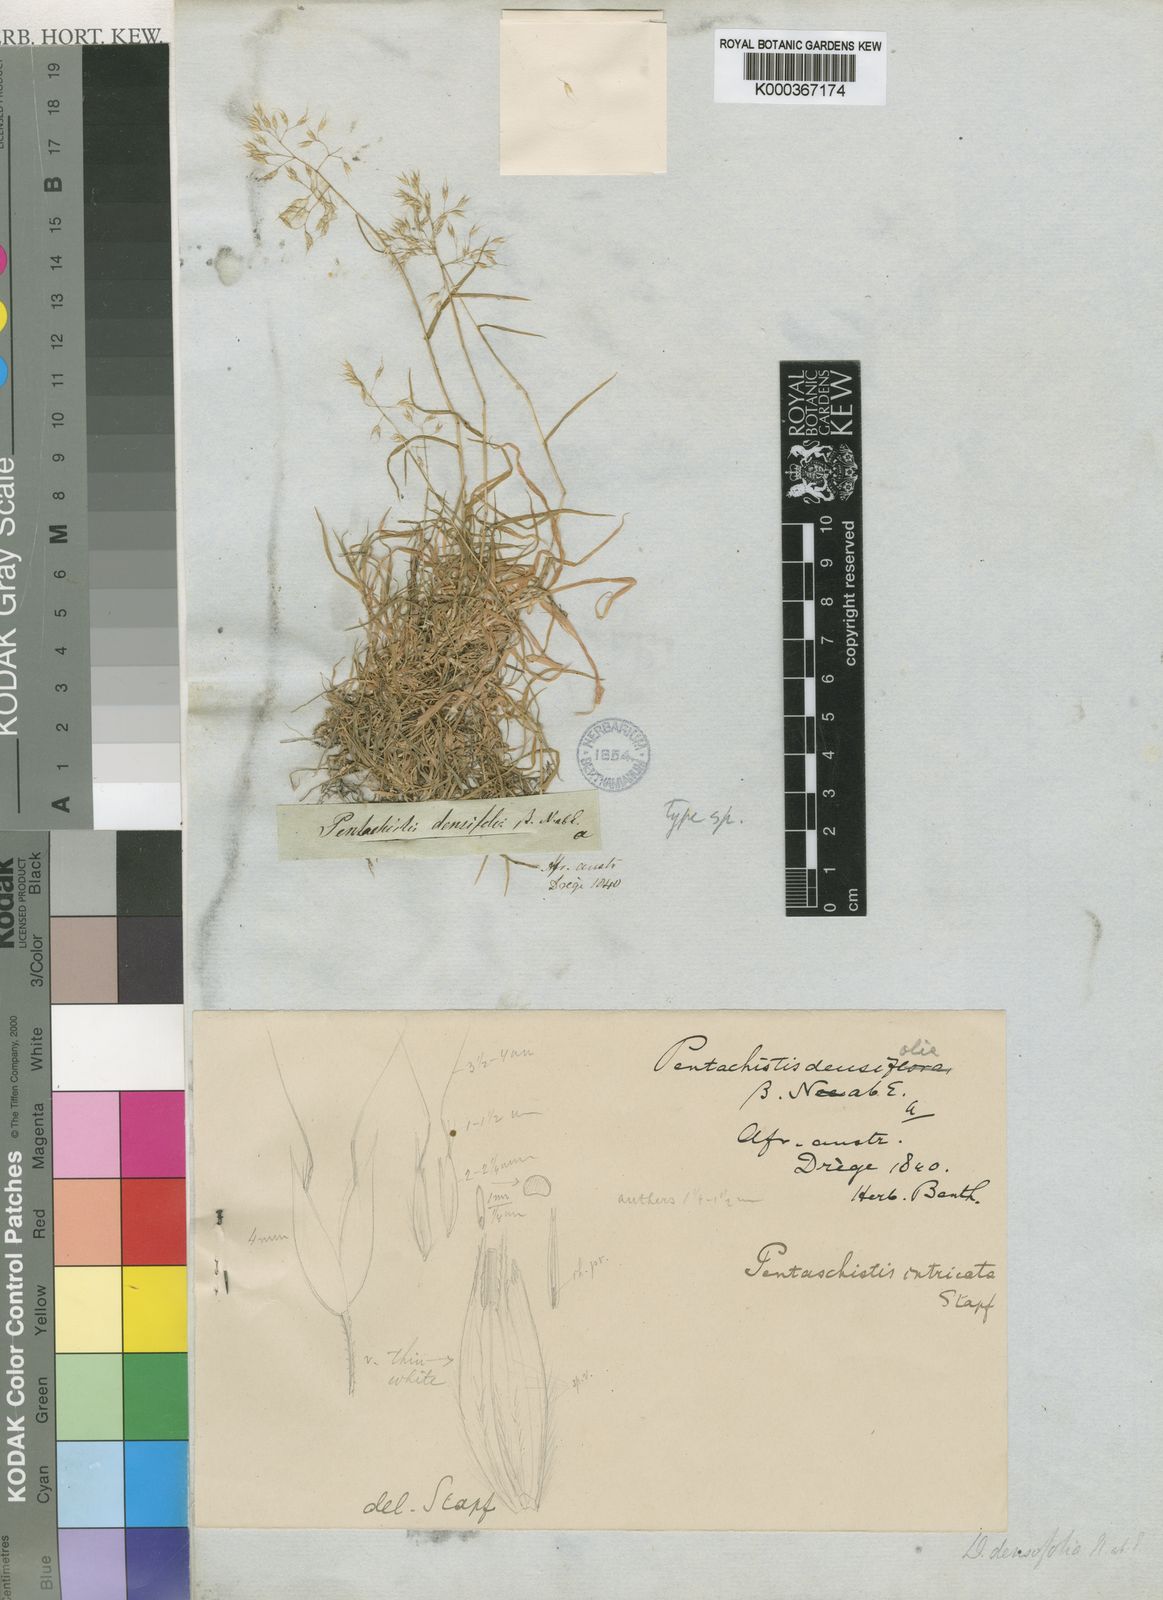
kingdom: Plantae
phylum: Tracheophyta
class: Liliopsida
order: Poales
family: Poaceae
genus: Pentameris
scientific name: Pentameris densifolia
